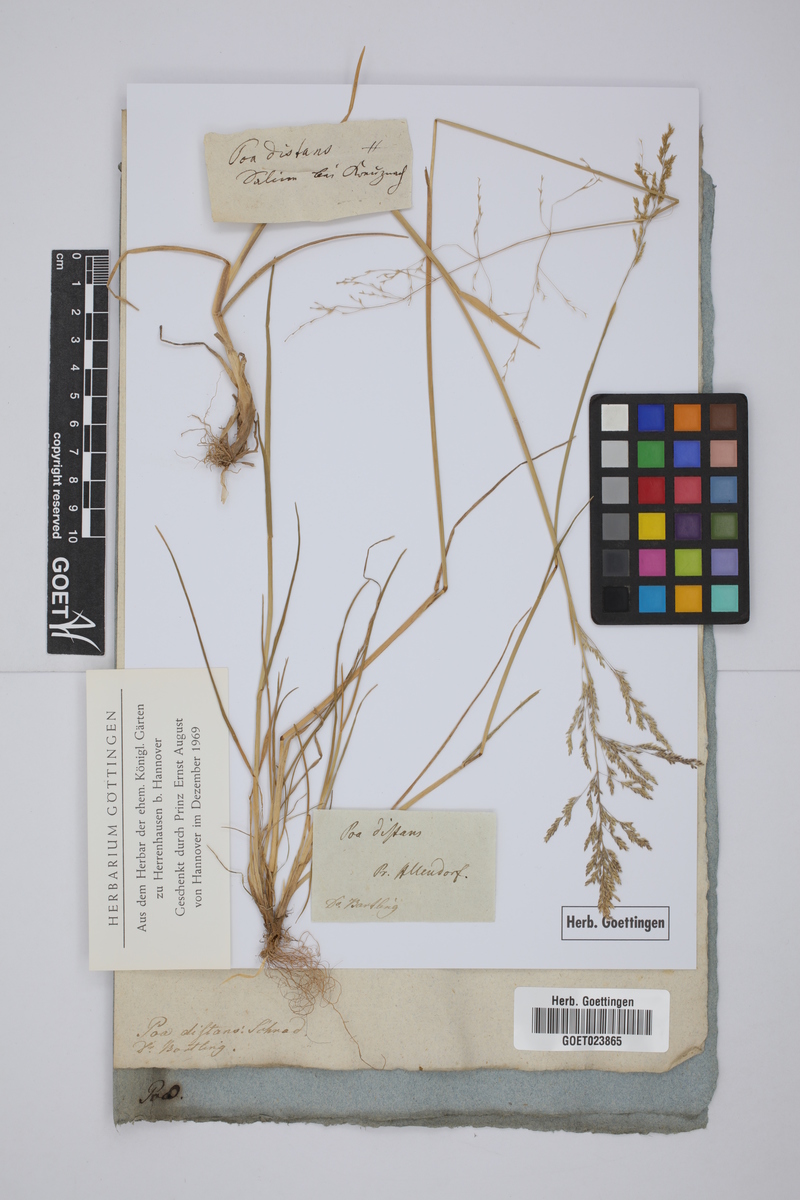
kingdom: Plantae
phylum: Tracheophyta
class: Liliopsida
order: Poales
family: Poaceae
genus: Puccinellia
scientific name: Puccinellia distans
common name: Weeping alkaligrass
